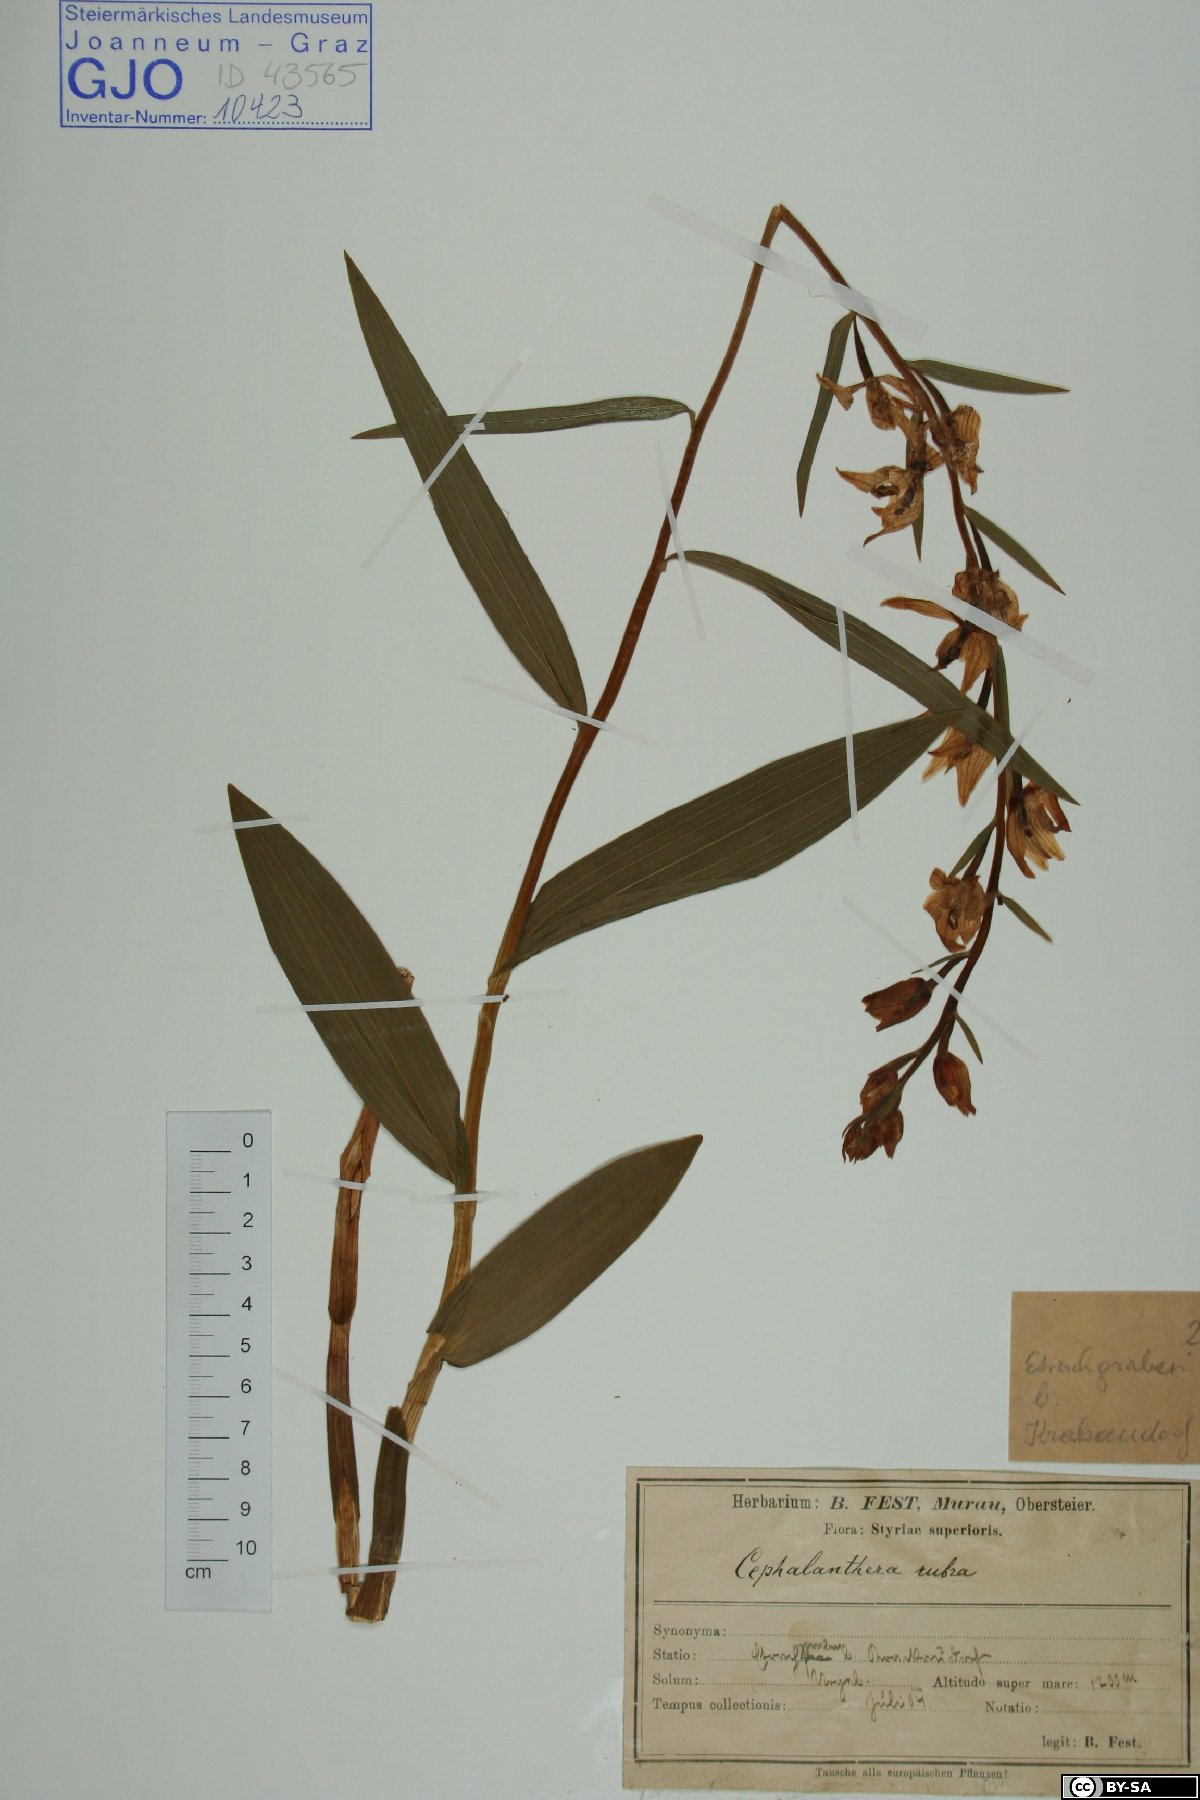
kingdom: Plantae
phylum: Tracheophyta
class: Liliopsida
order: Asparagales
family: Orchidaceae
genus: Cephalanthera
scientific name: Cephalanthera rubra
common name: Red helleborine
